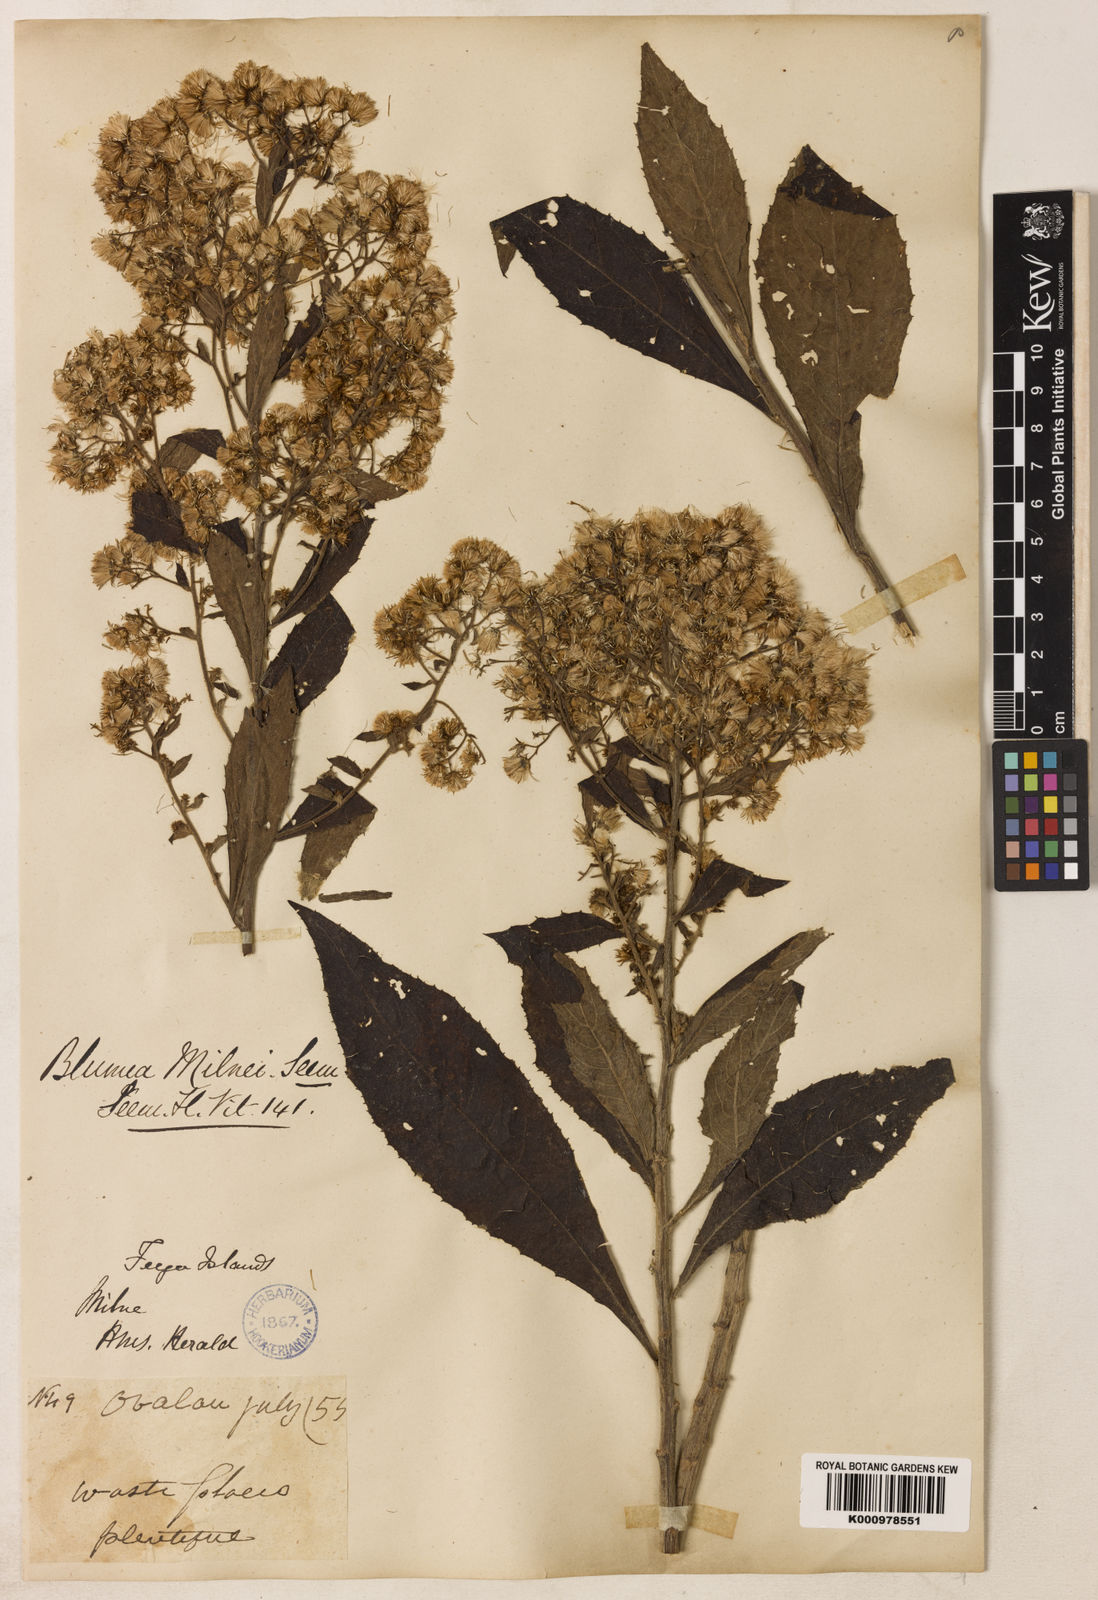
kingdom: Plantae
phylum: Tracheophyta
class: Magnoliopsida
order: Asterales
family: Asteraceae
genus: Blumea
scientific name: Blumea milnei
